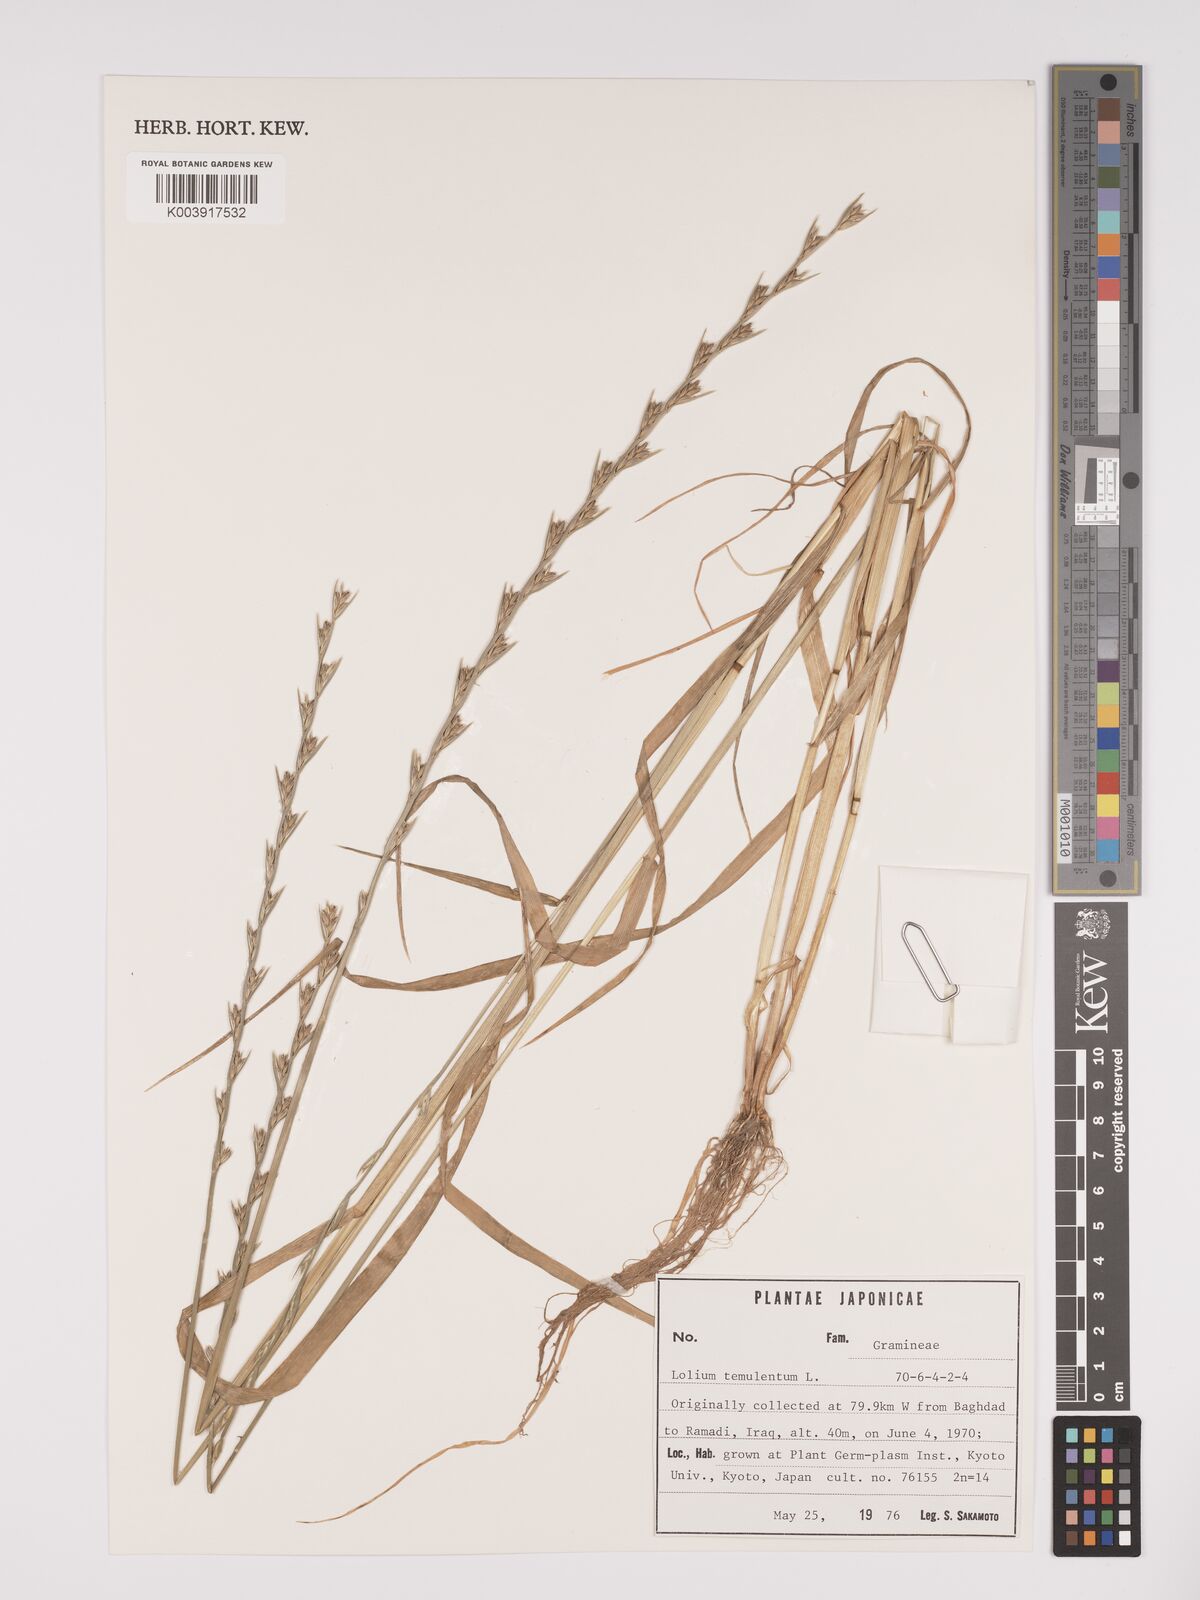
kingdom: Plantae
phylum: Tracheophyta
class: Liliopsida
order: Poales
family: Poaceae
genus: Lolium
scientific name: Lolium temulentum
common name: Darnel
